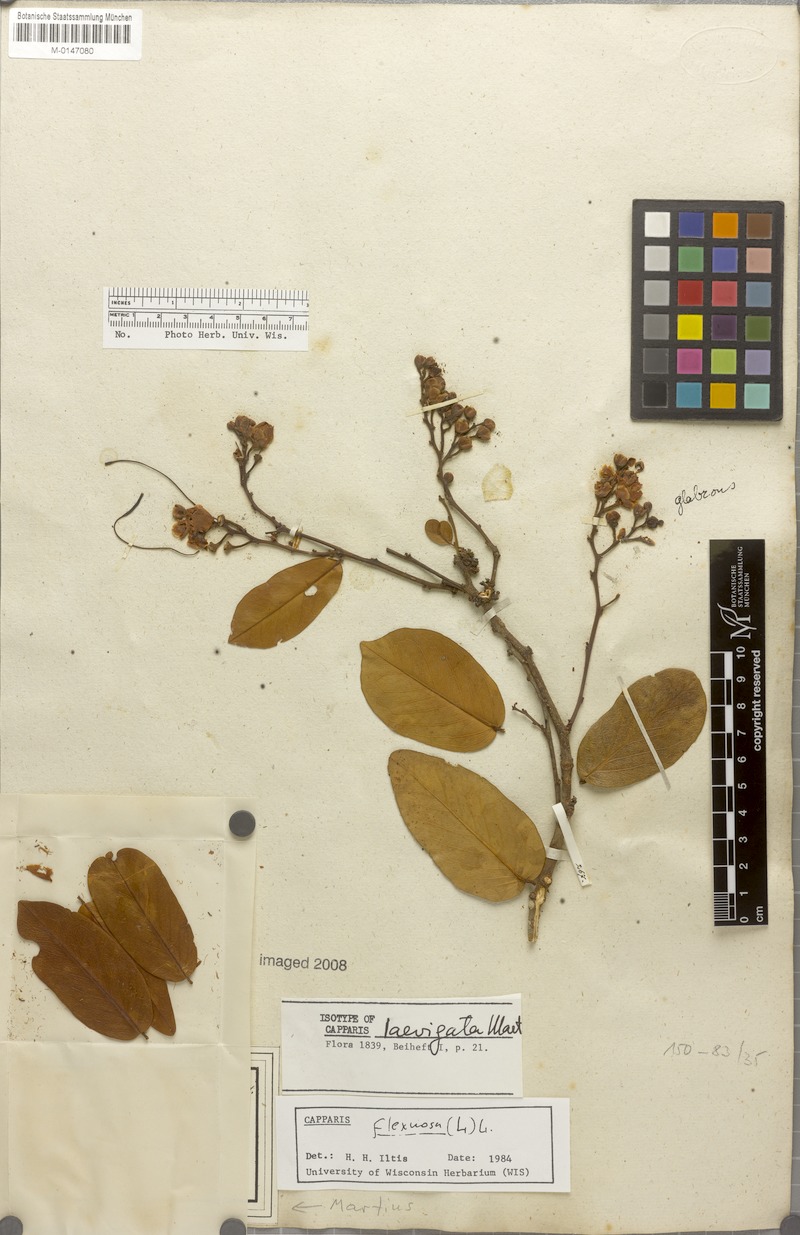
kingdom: Plantae
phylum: Tracheophyta
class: Magnoliopsida
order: Brassicales
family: Capparaceae
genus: Cynophalla
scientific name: Cynophalla flexuosa
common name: Capertree
